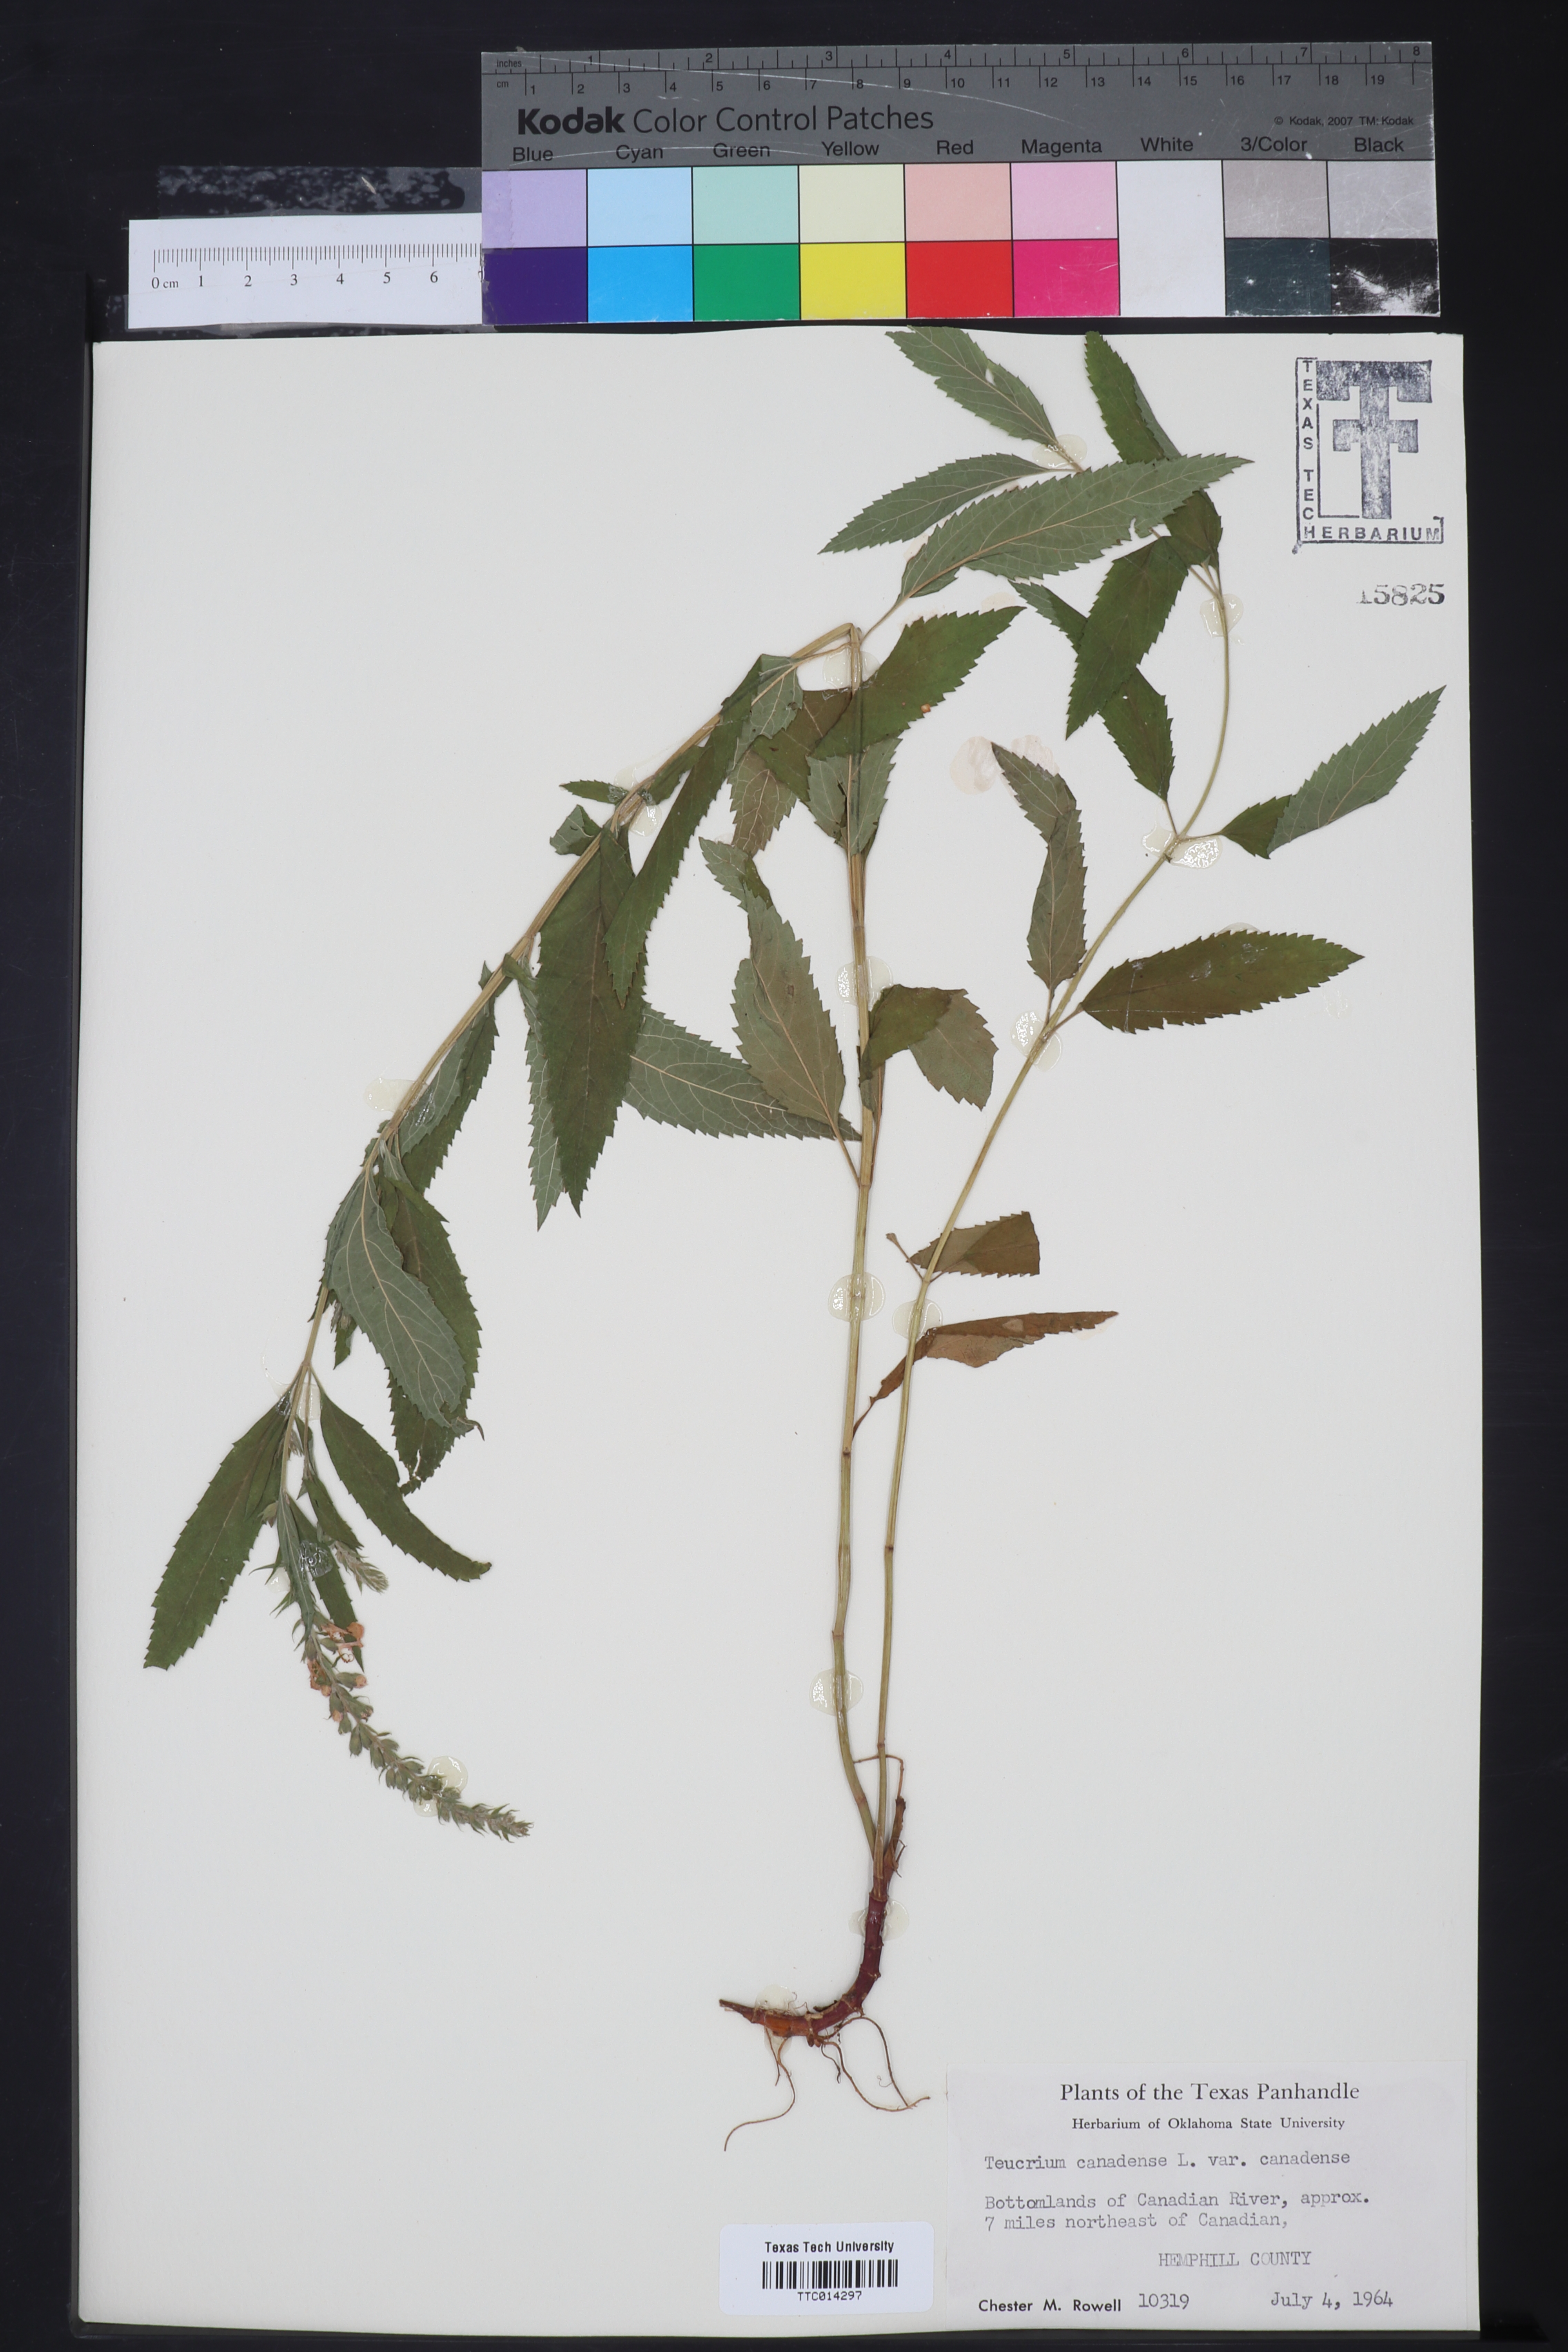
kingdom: Plantae
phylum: Tracheophyta
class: Magnoliopsida
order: Lamiales
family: Lamiaceae
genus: Teucrium
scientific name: Teucrium canadense
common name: American germander
